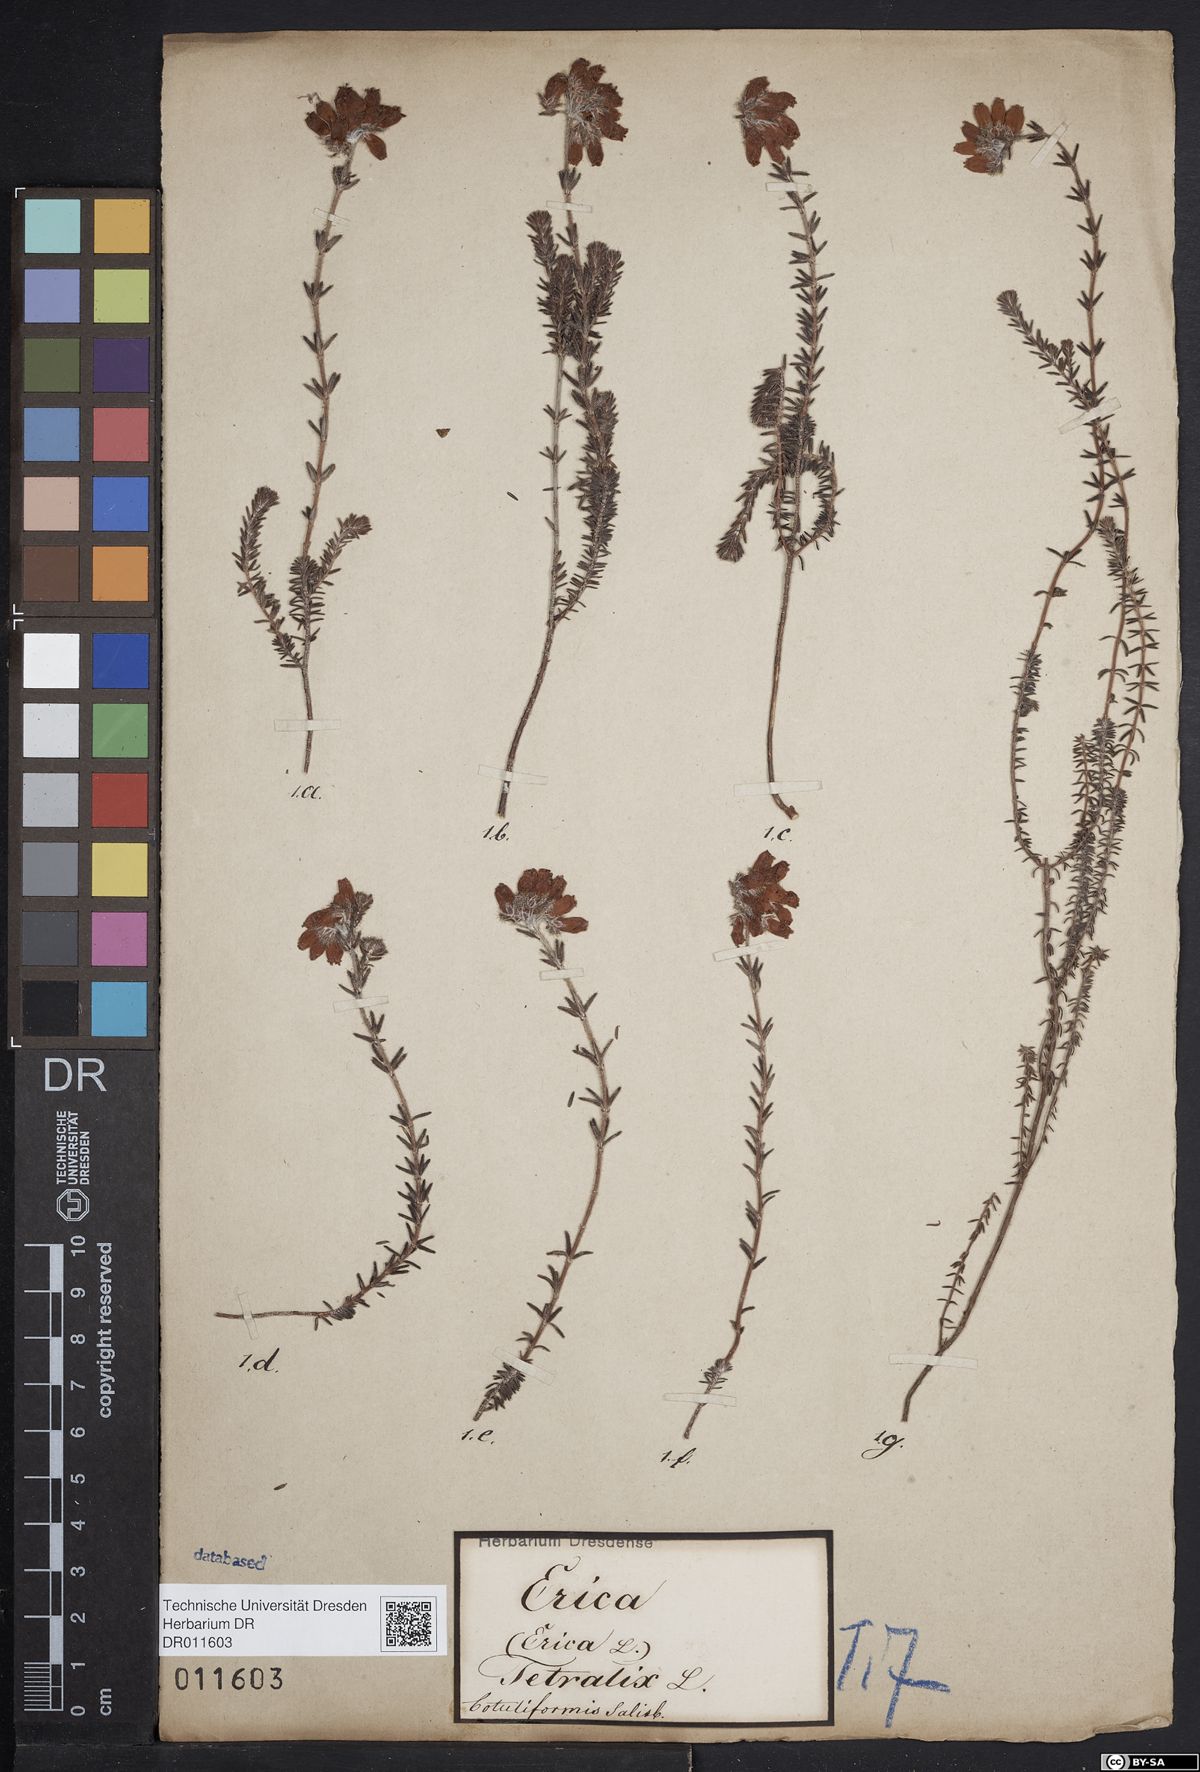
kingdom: Plantae
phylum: Tracheophyta
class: Magnoliopsida
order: Ericales
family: Ericaceae
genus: Erica
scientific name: Erica tetralix
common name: Cross-leaved heath
